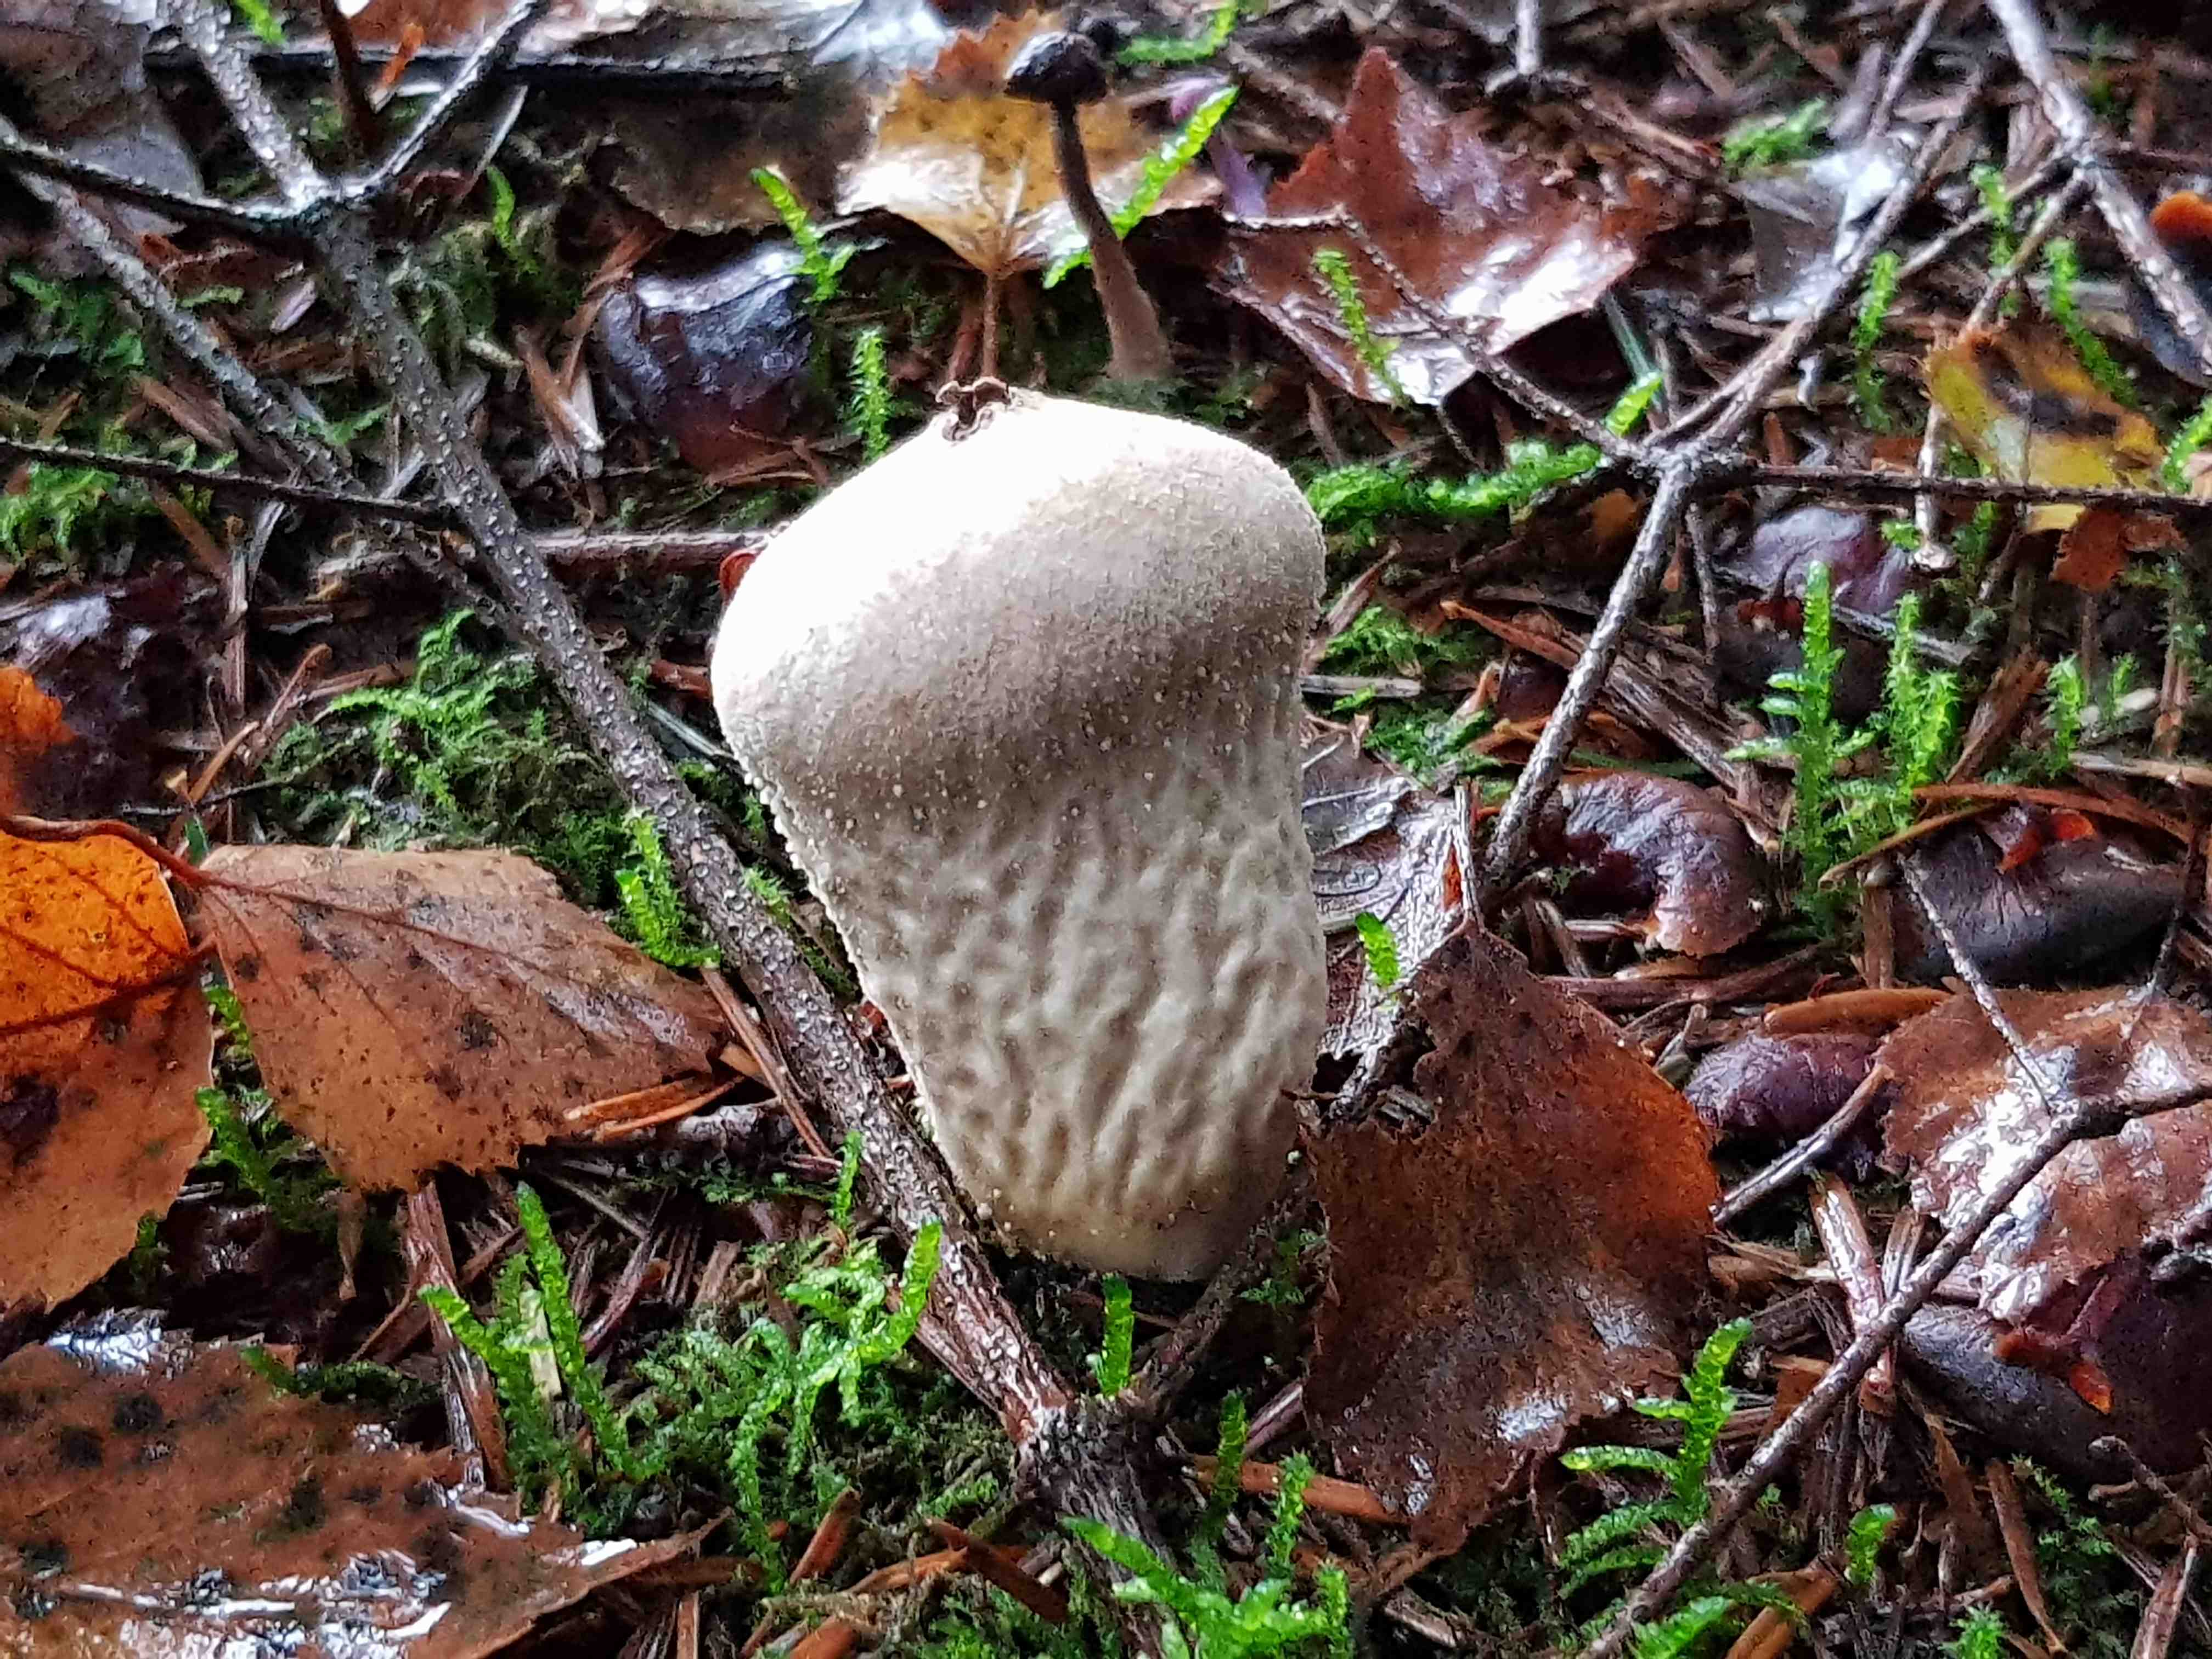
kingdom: Fungi
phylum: Basidiomycota
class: Agaricomycetes
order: Agaricales
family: Lycoperdaceae
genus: Lycoperdon
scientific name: Lycoperdon perlatum
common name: krystal-støvbold
